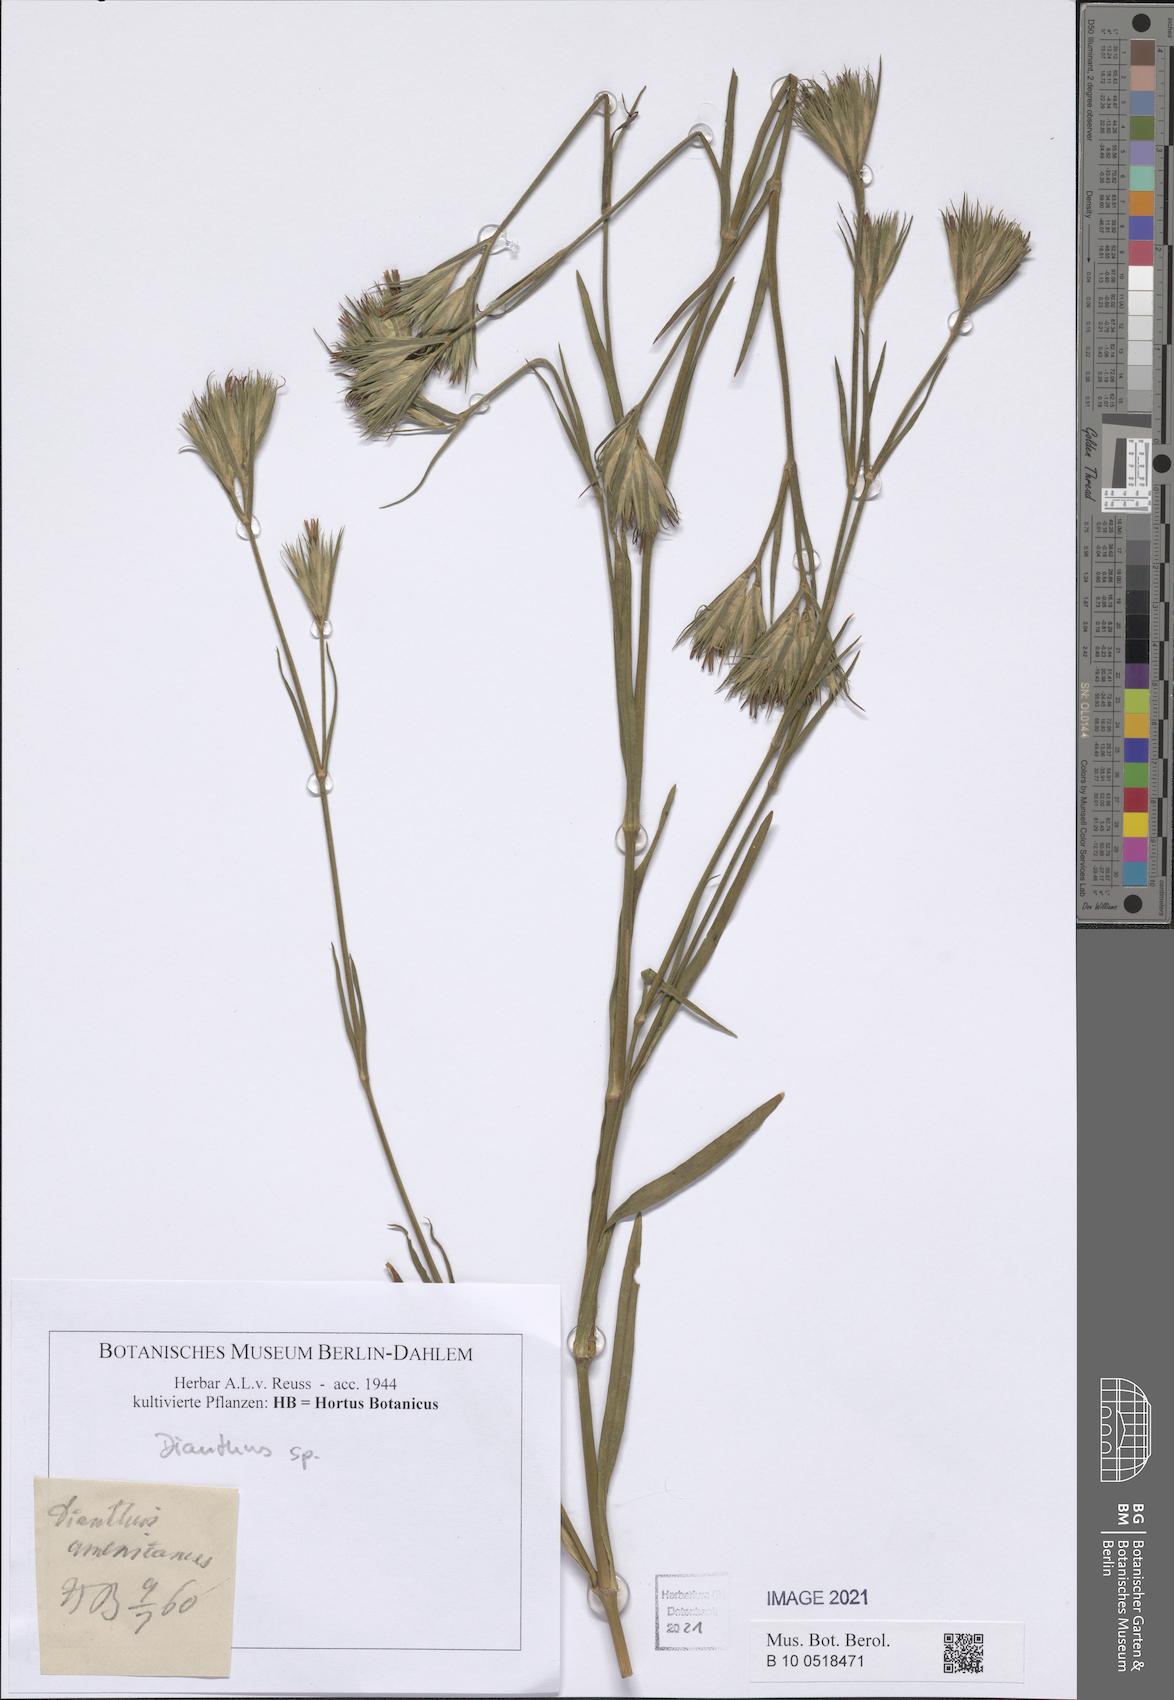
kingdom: Plantae
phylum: Tracheophyta
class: Magnoliopsida
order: Caryophyllales
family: Caryophyllaceae
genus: Dianthus
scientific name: Dianthus
